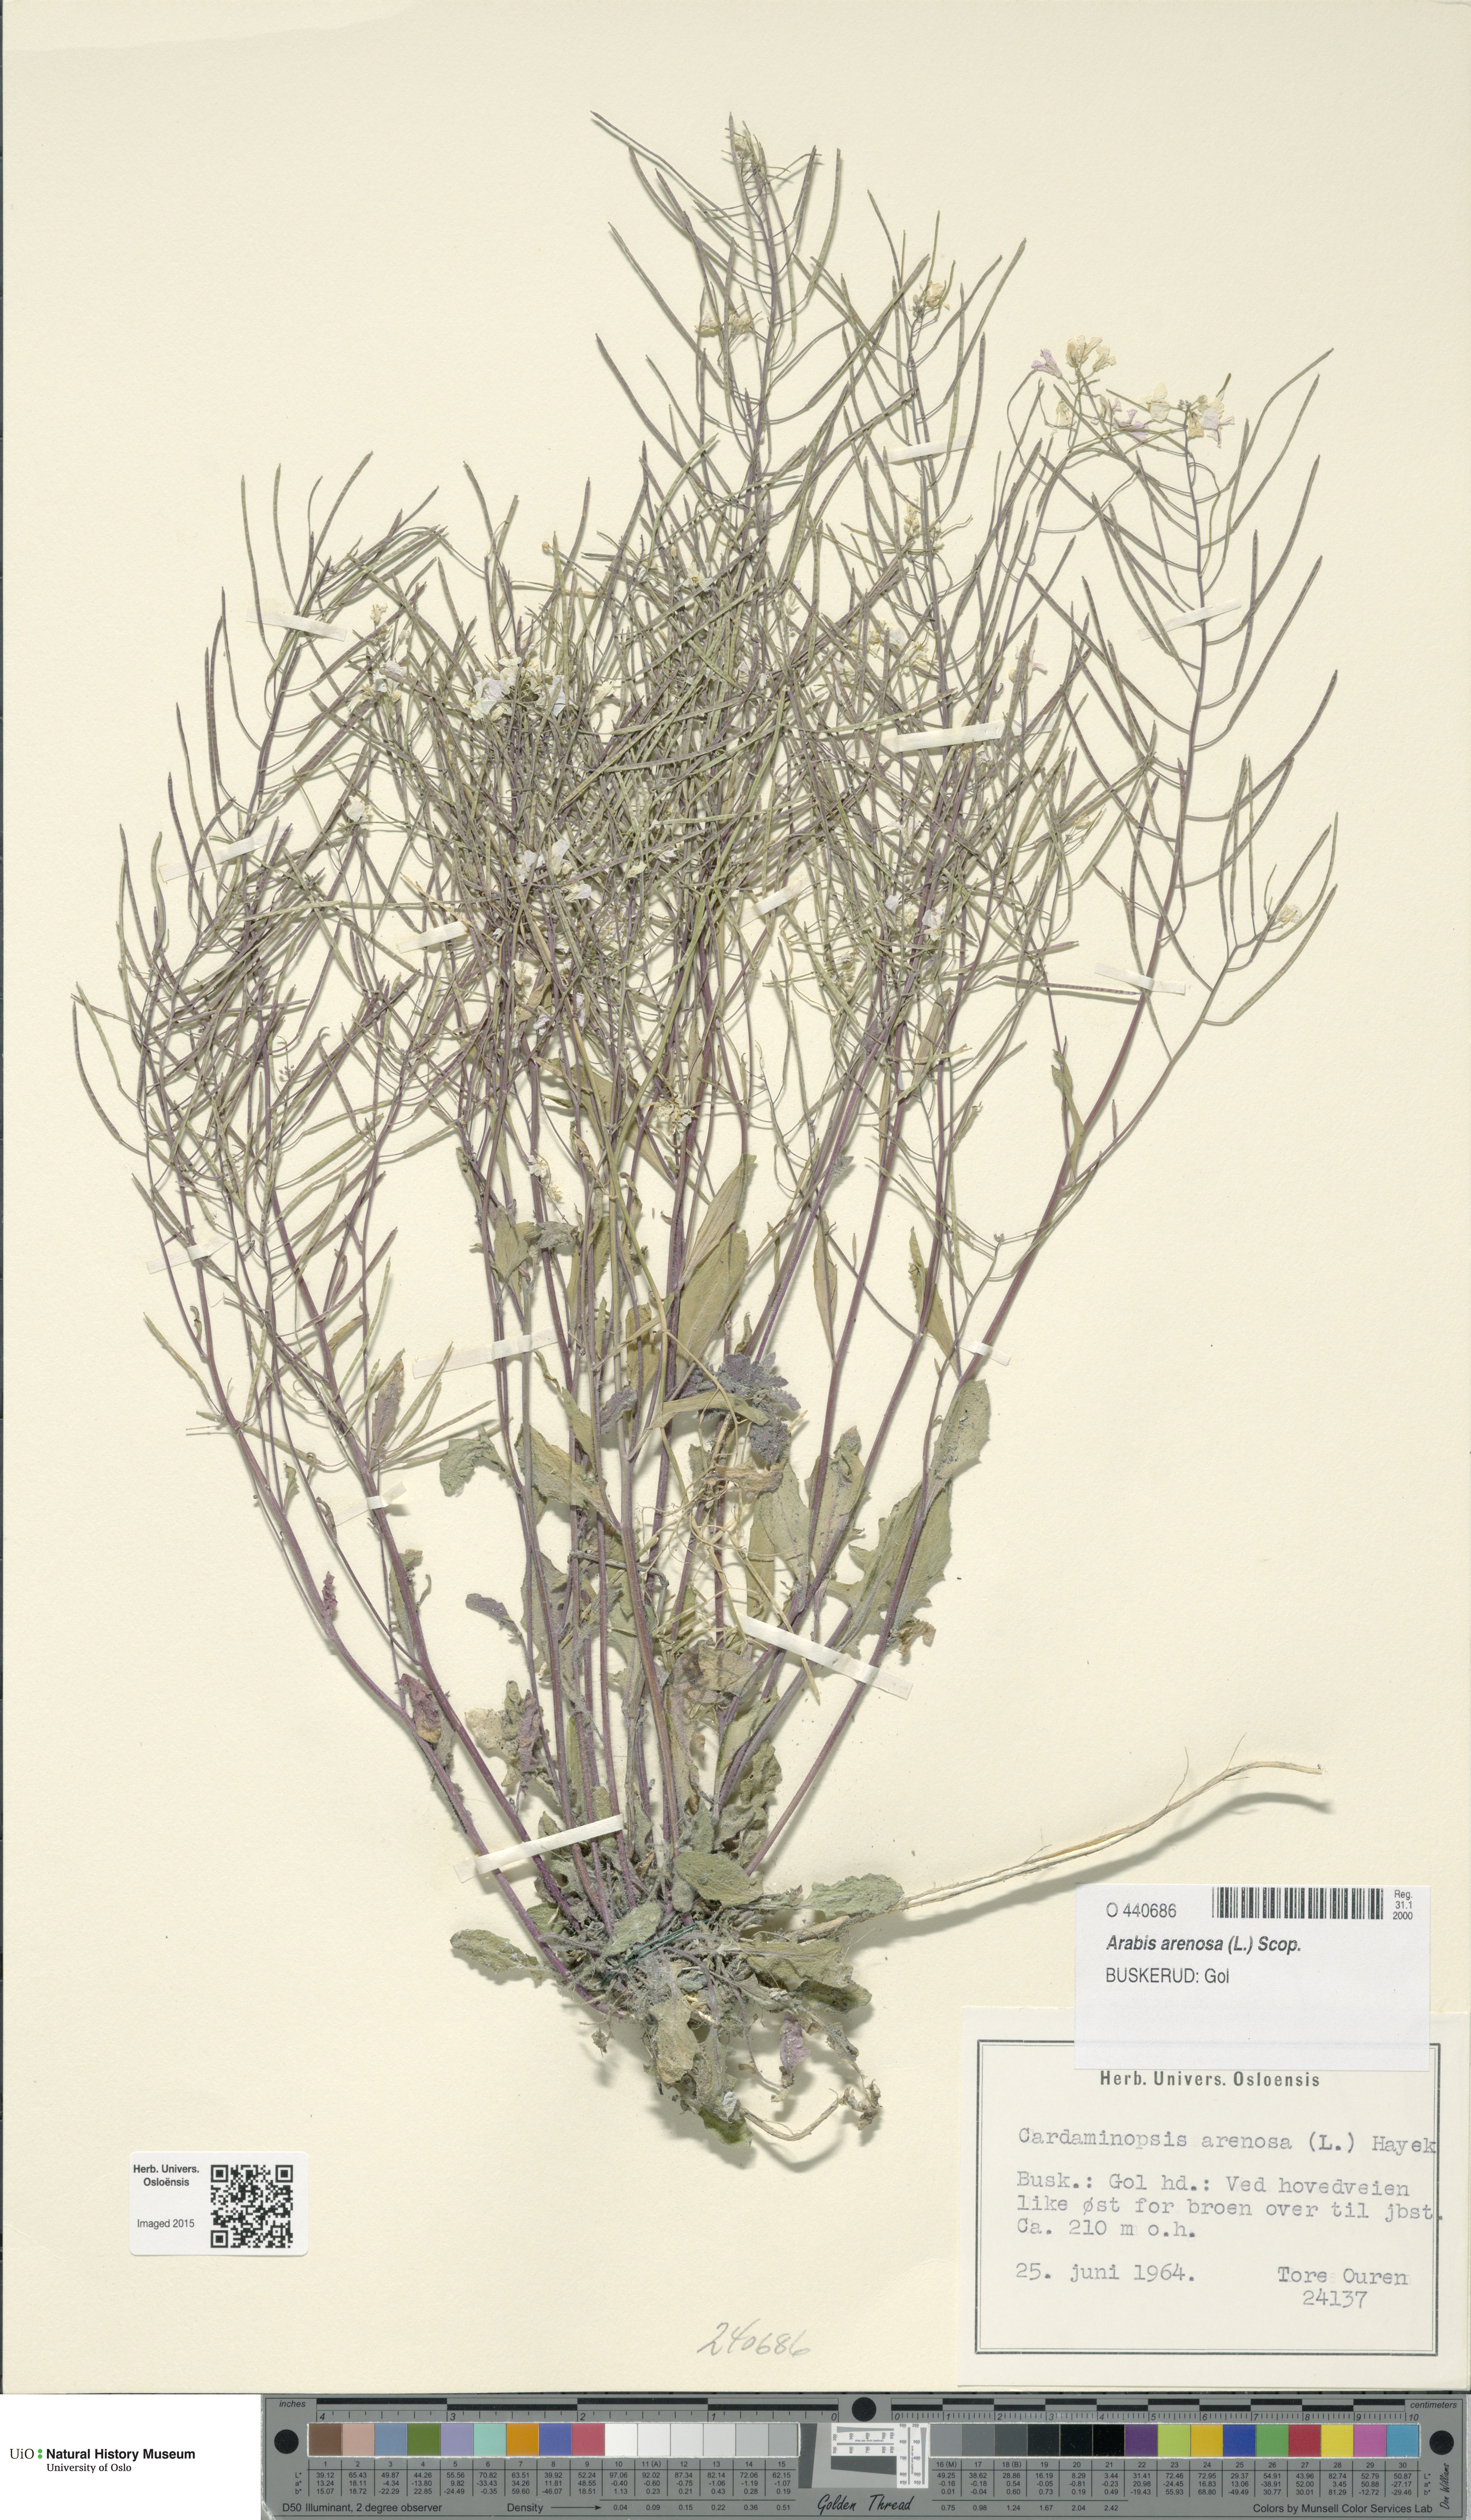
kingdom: Plantae
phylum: Tracheophyta
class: Magnoliopsida
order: Brassicales
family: Brassicaceae
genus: Arabidopsis
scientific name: Arabidopsis arenosa
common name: Sand rock-cress
